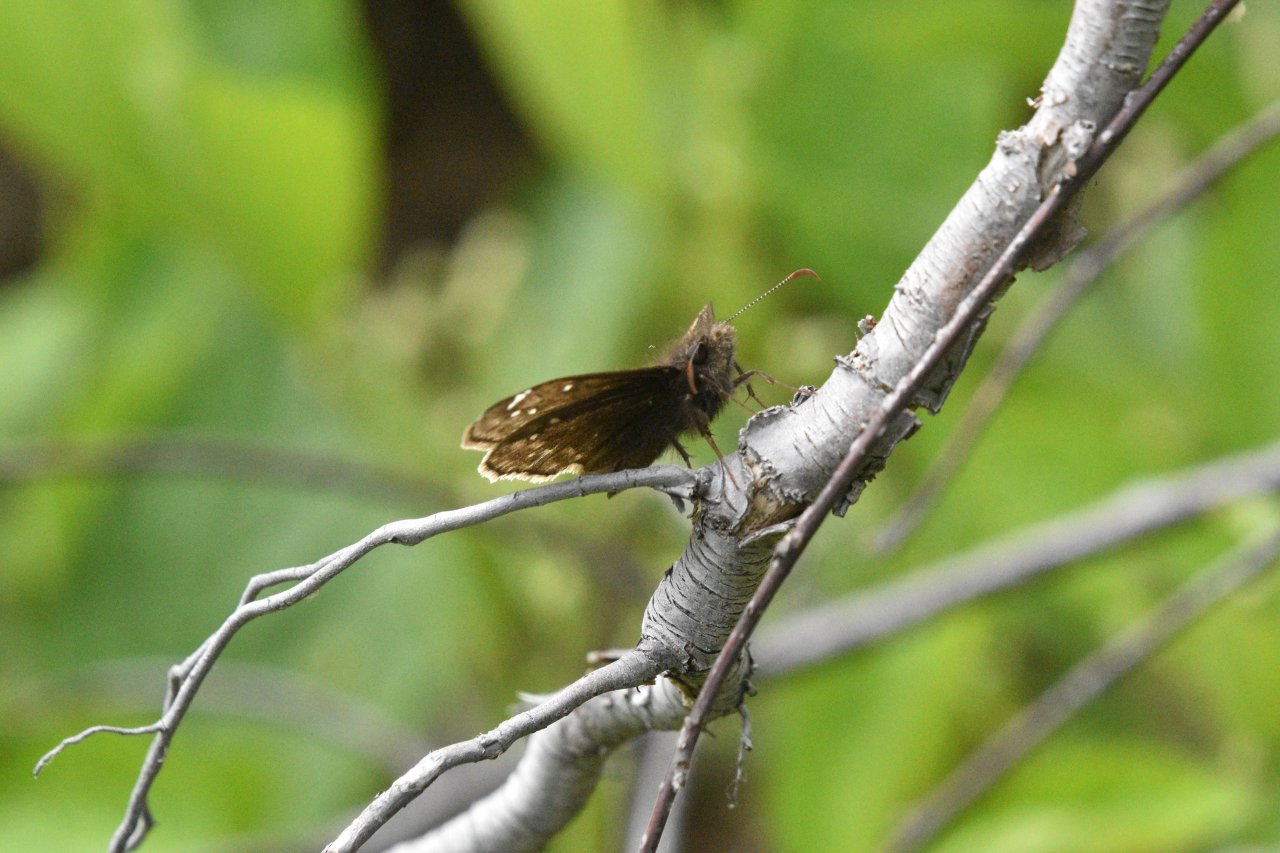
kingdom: Animalia
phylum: Arthropoda
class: Insecta
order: Lepidoptera
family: Hesperiidae
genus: Gesta
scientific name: Gesta
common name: Juvenal's Duskywing
